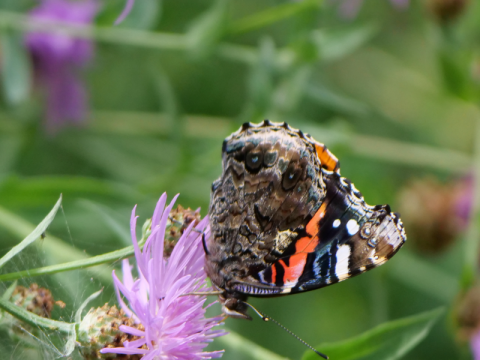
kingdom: Animalia
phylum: Arthropoda
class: Insecta
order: Lepidoptera
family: Nymphalidae
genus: Vanessa
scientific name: Vanessa atalanta
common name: Red Admiral
